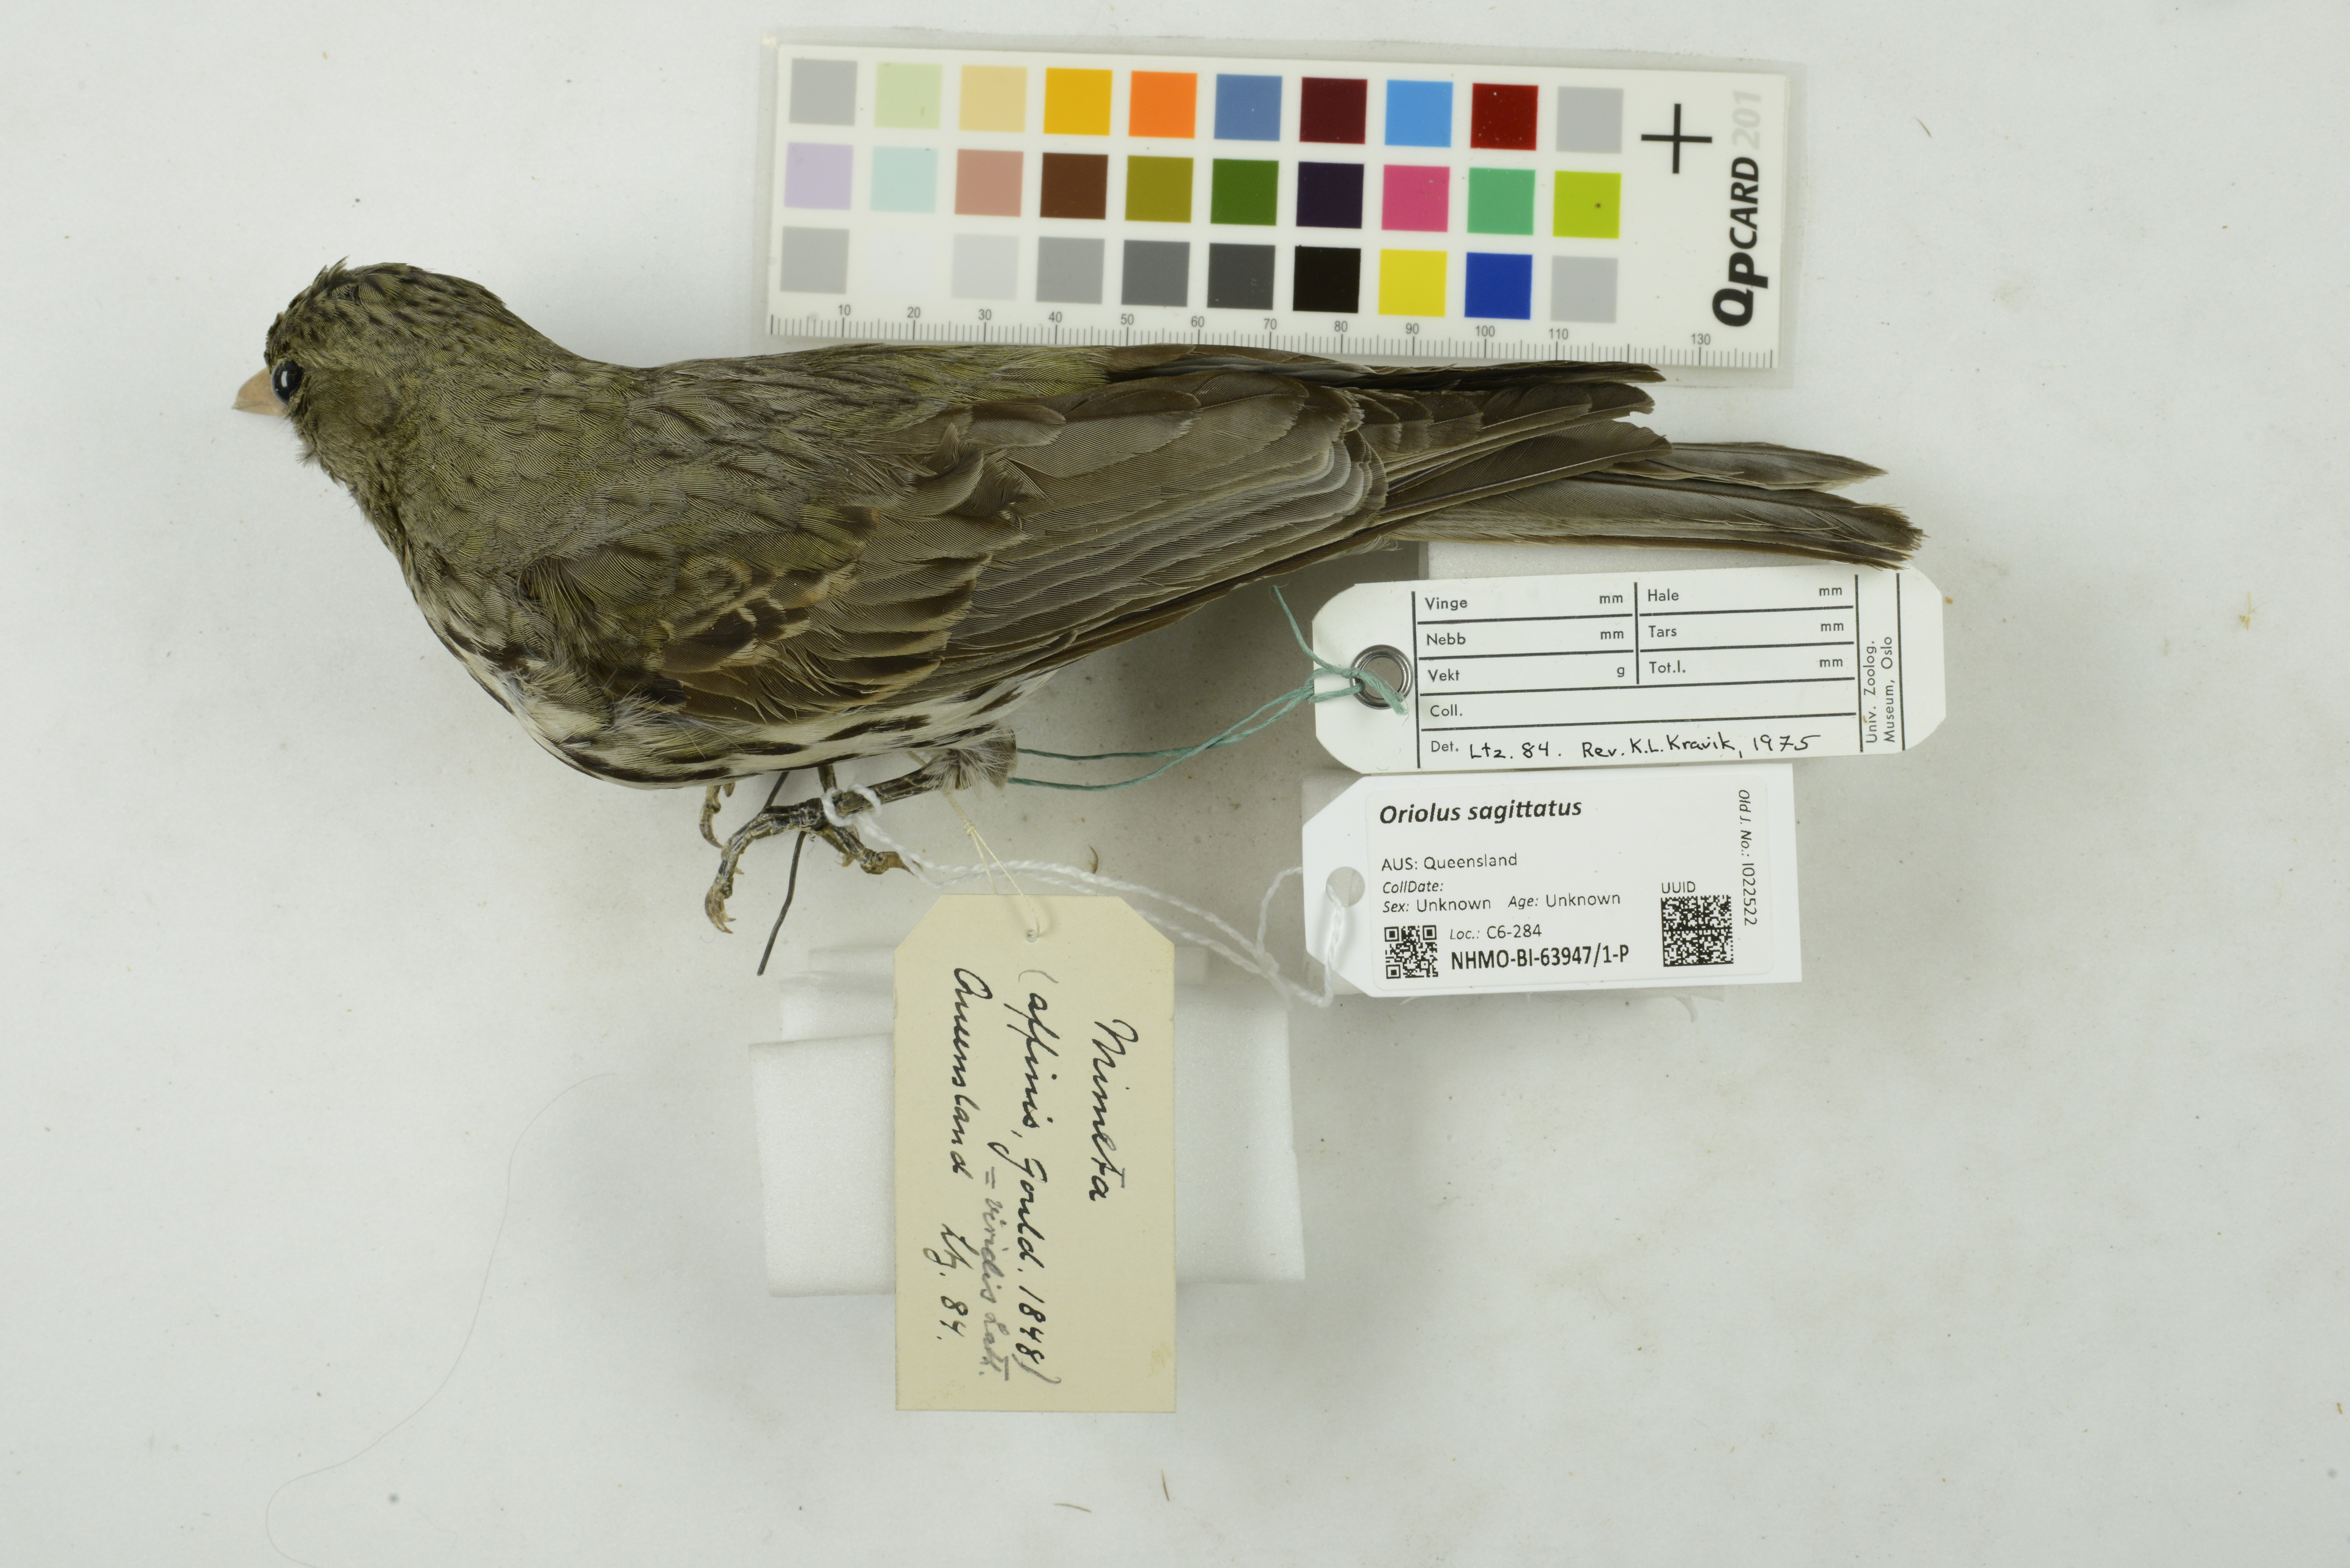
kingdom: Animalia
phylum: Chordata
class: Aves
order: Passeriformes
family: Oriolidae
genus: Oriolus
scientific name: Oriolus sagittatus
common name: Olive-backed oriole
